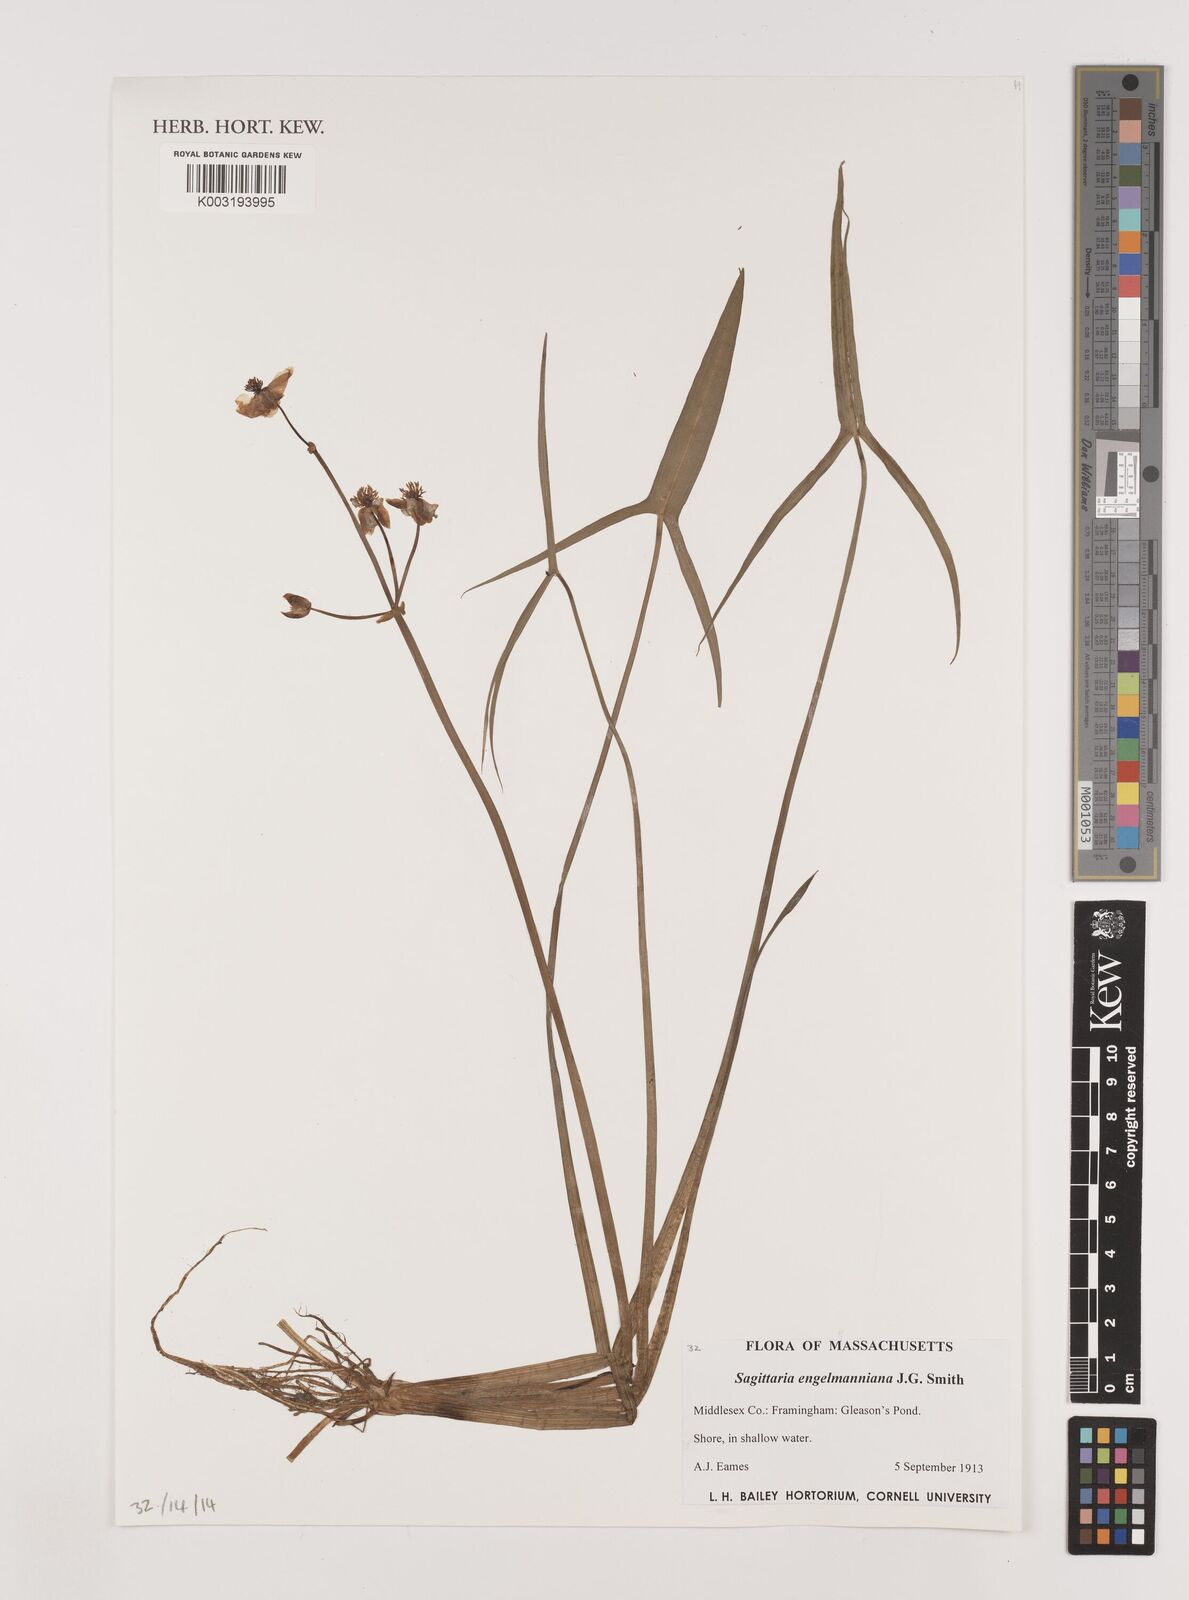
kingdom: Plantae
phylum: Tracheophyta
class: Liliopsida
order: Alismatales
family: Alismataceae
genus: Sagittaria
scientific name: Sagittaria engelmanniana
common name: Acid-water arrowhead
